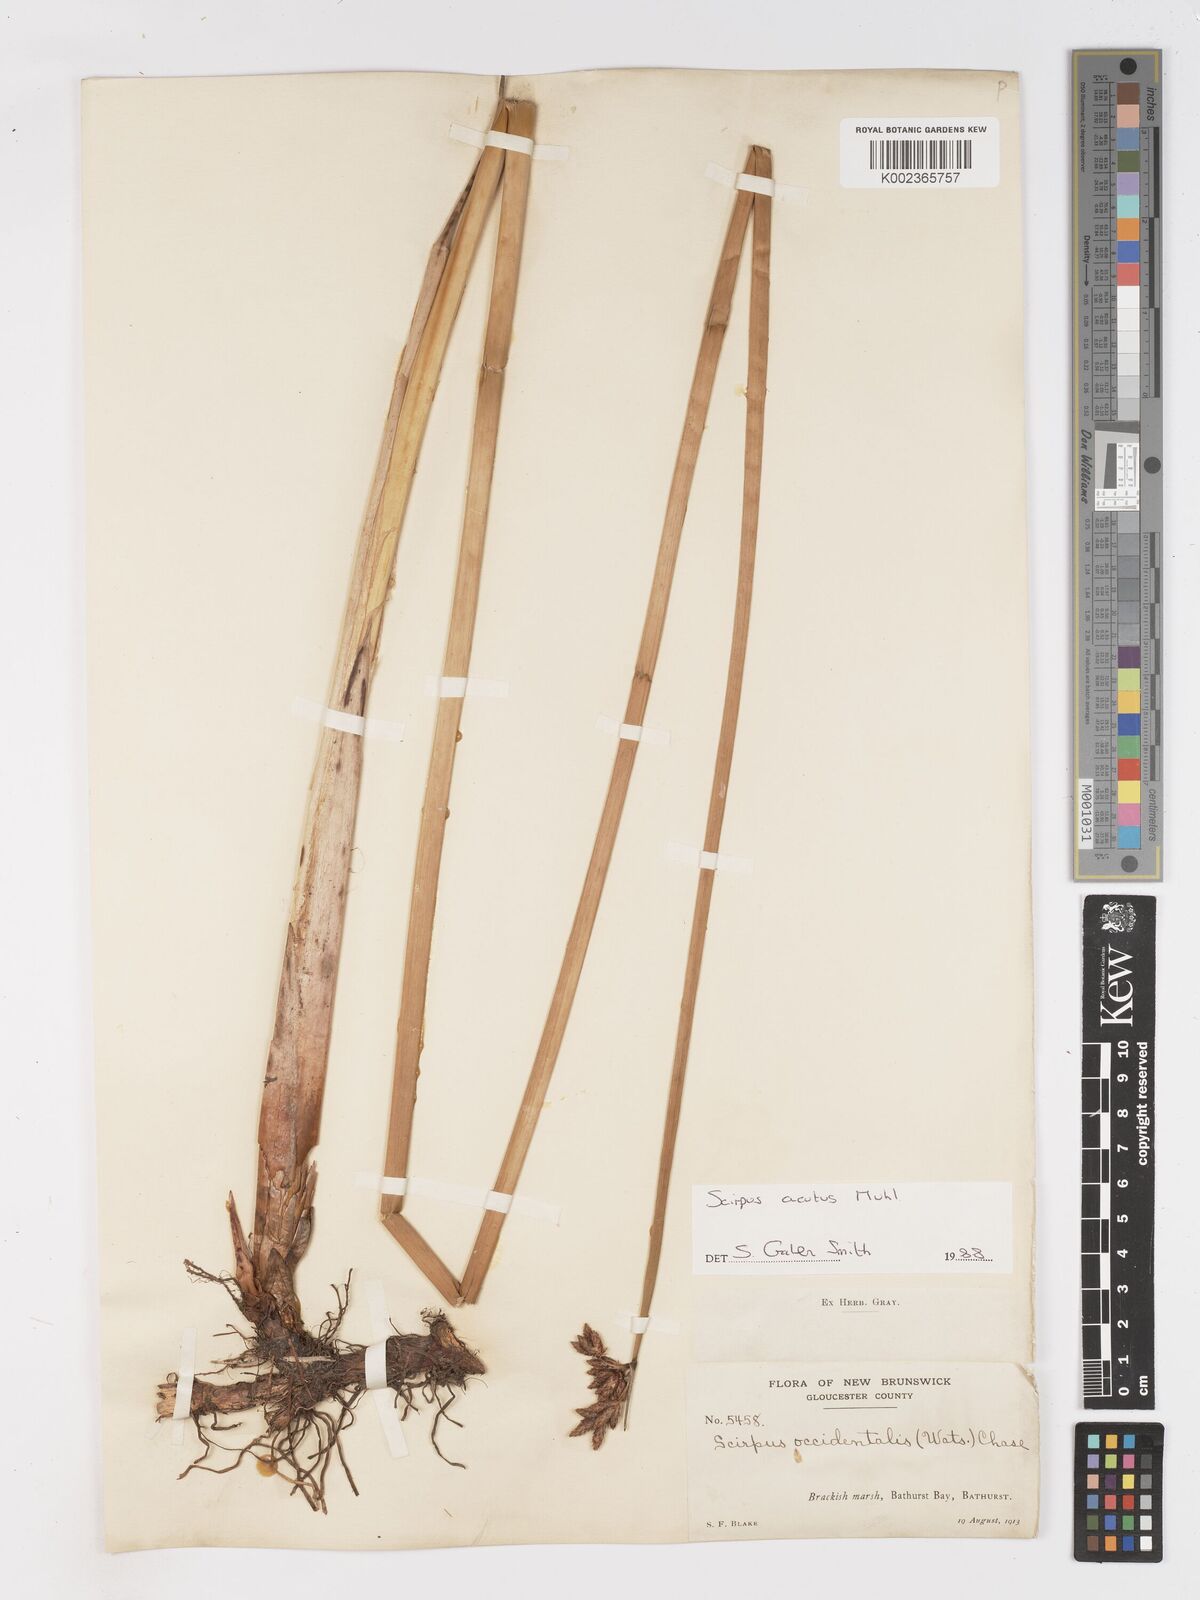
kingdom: Plantae
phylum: Tracheophyta
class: Liliopsida
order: Poales
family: Cyperaceae
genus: Schoenoplectus
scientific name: Schoenoplectus
